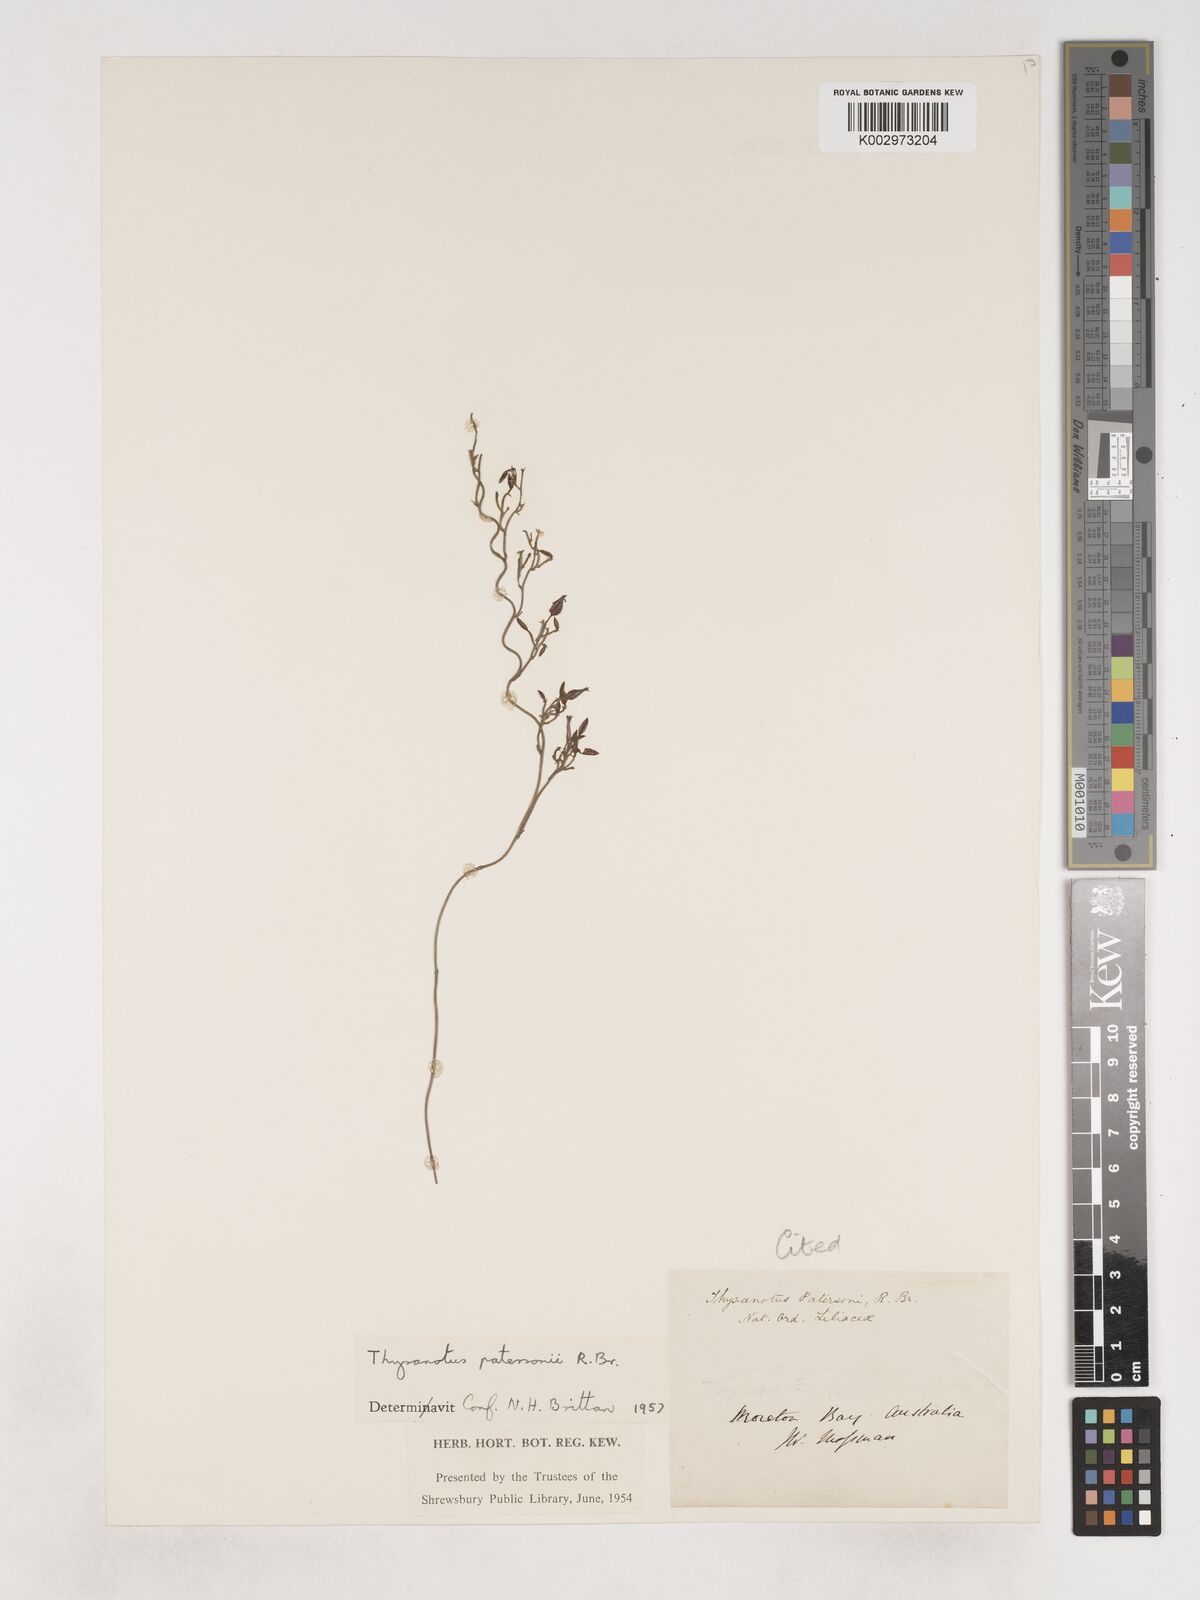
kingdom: Plantae
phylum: Tracheophyta
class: Liliopsida
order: Asparagales
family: Asparagaceae
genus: Thysanotus
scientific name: Thysanotus patersonii
